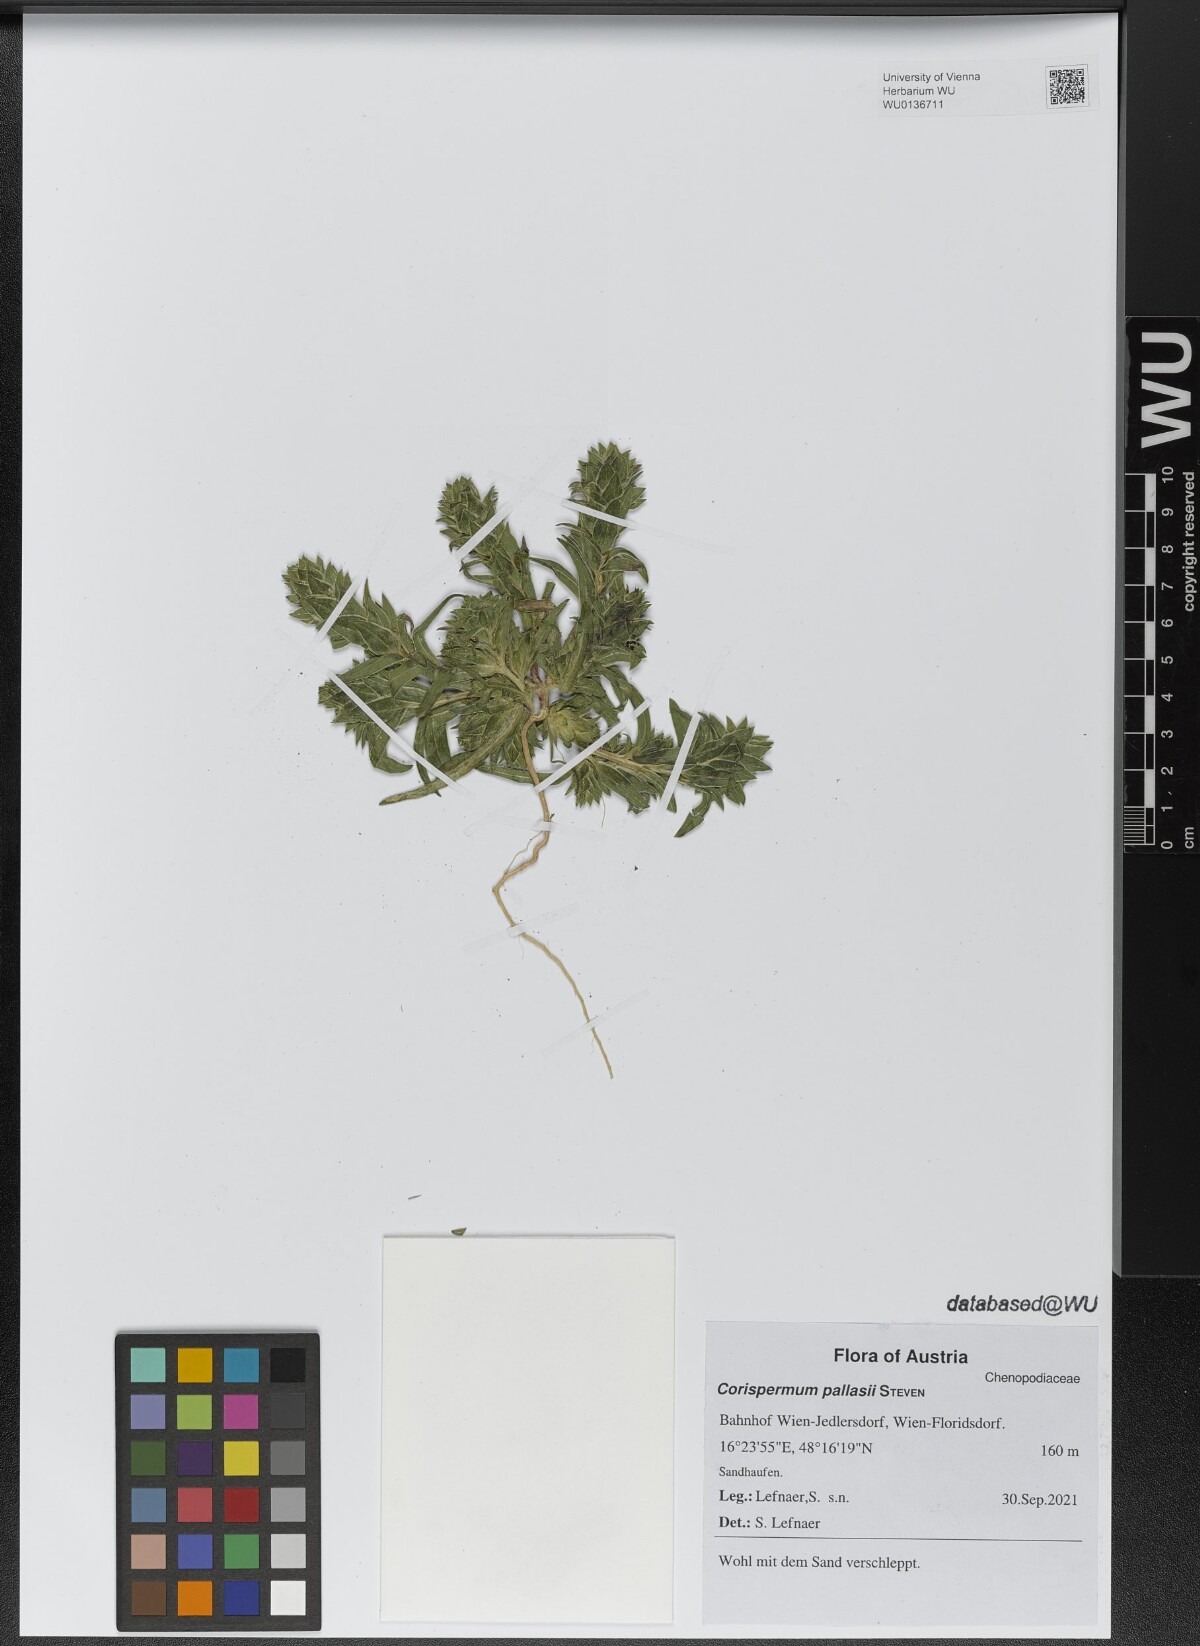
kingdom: Plantae
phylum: Tracheophyta
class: Magnoliopsida
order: Caryophyllales
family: Amaranthaceae
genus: Corispermum
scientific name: Corispermum pallasii
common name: Siberian bugseed
